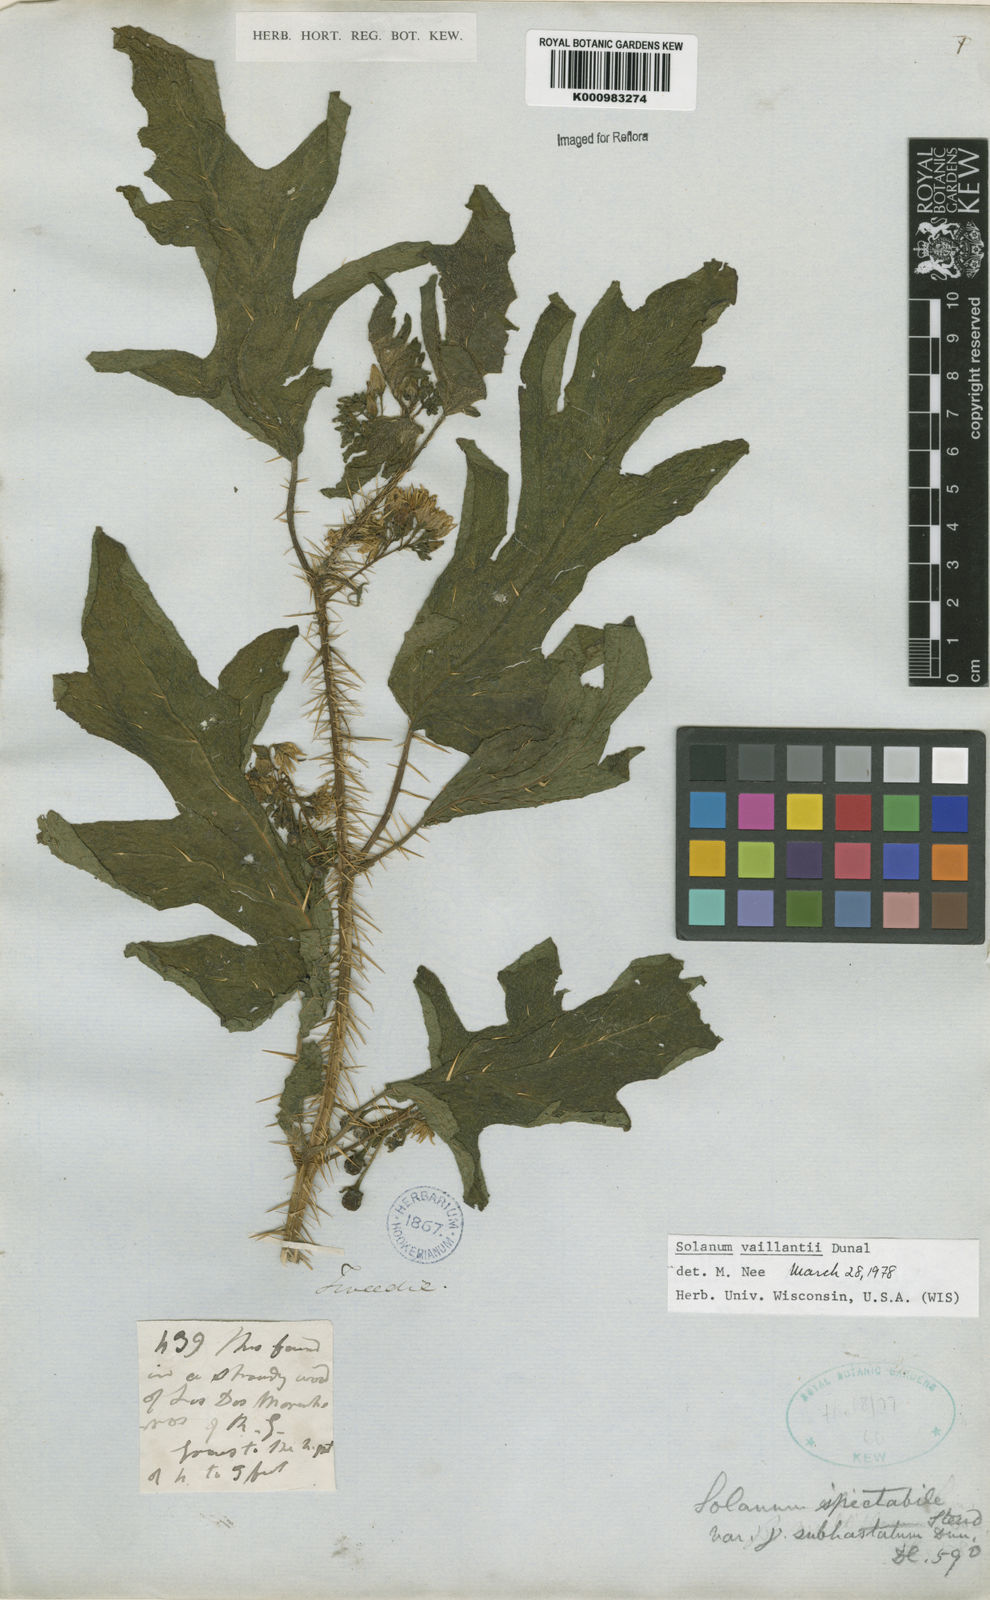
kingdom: Plantae
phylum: Tracheophyta
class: Magnoliopsida
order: Solanales
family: Solanaceae
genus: Solanum
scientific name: Solanum vaillantii
